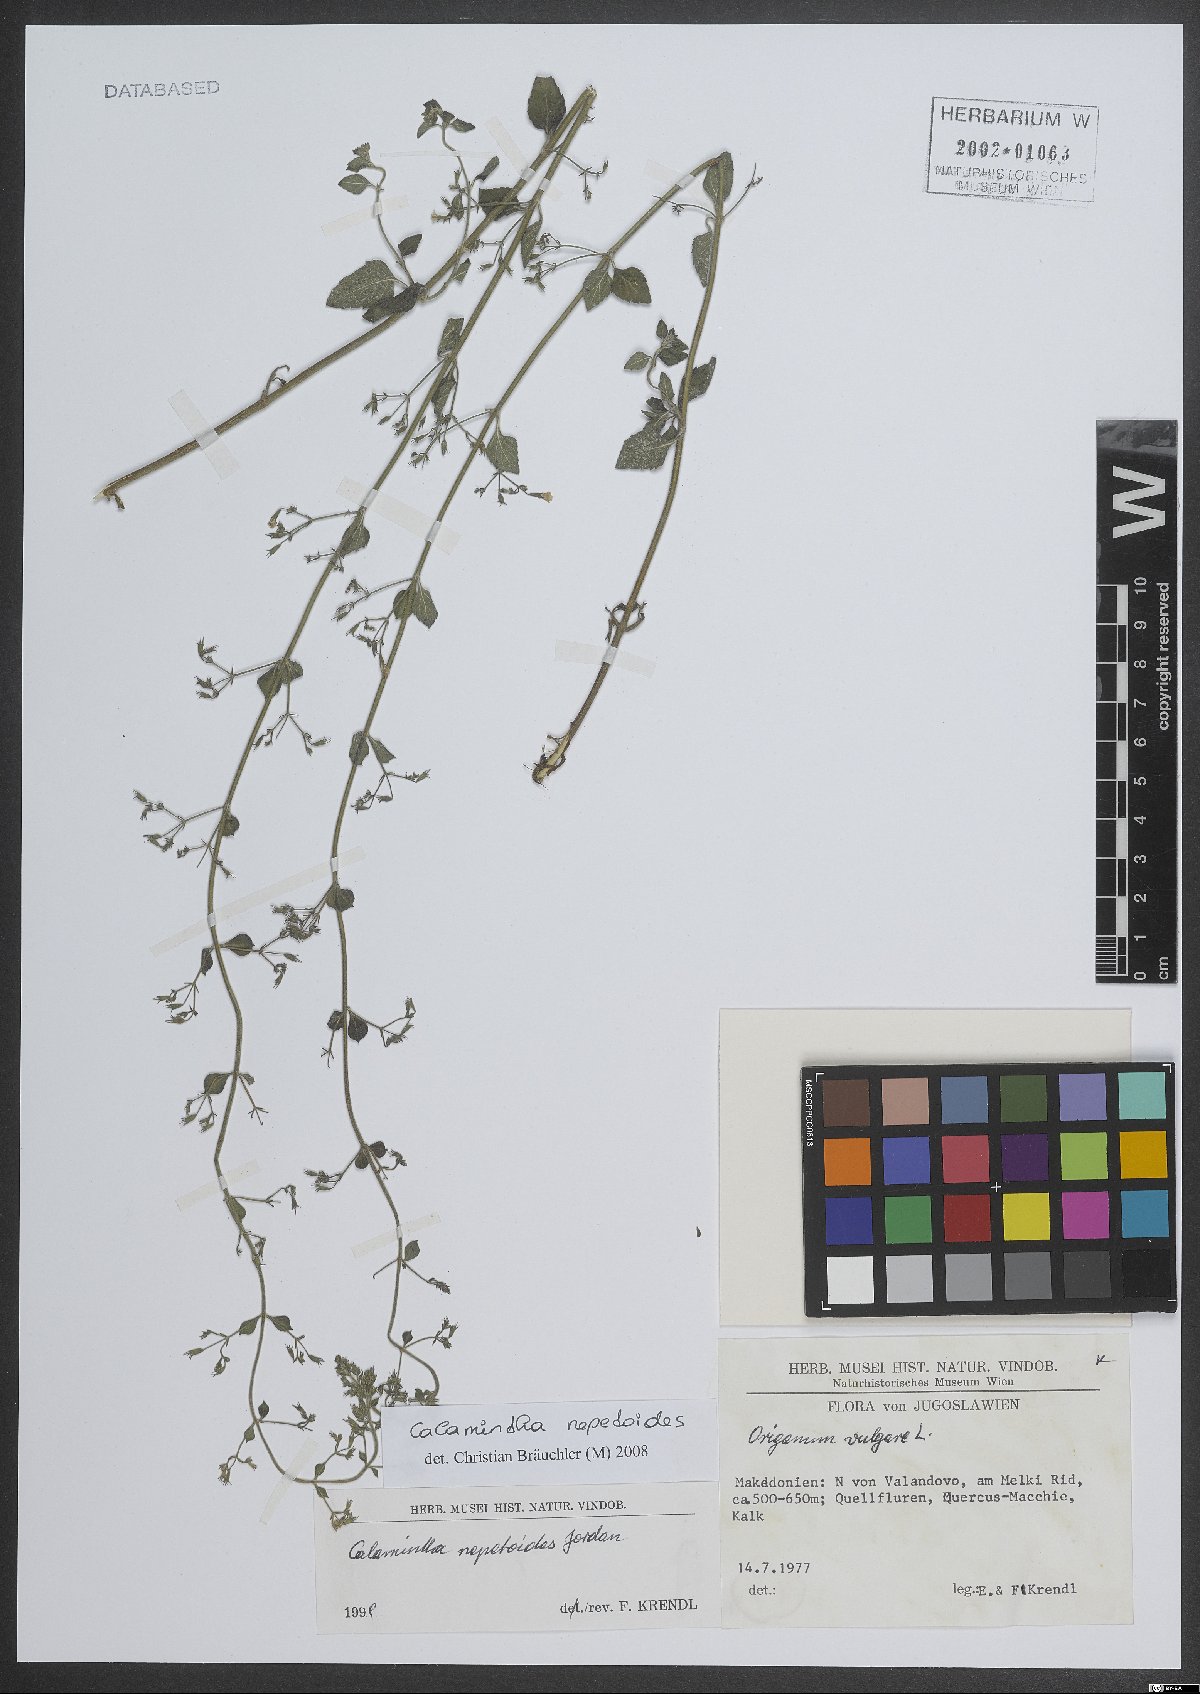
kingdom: Plantae
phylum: Tracheophyta
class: Magnoliopsida
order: Lamiales
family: Lamiaceae
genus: Clinopodium
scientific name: Clinopodium nepeta
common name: Lesser calamint
